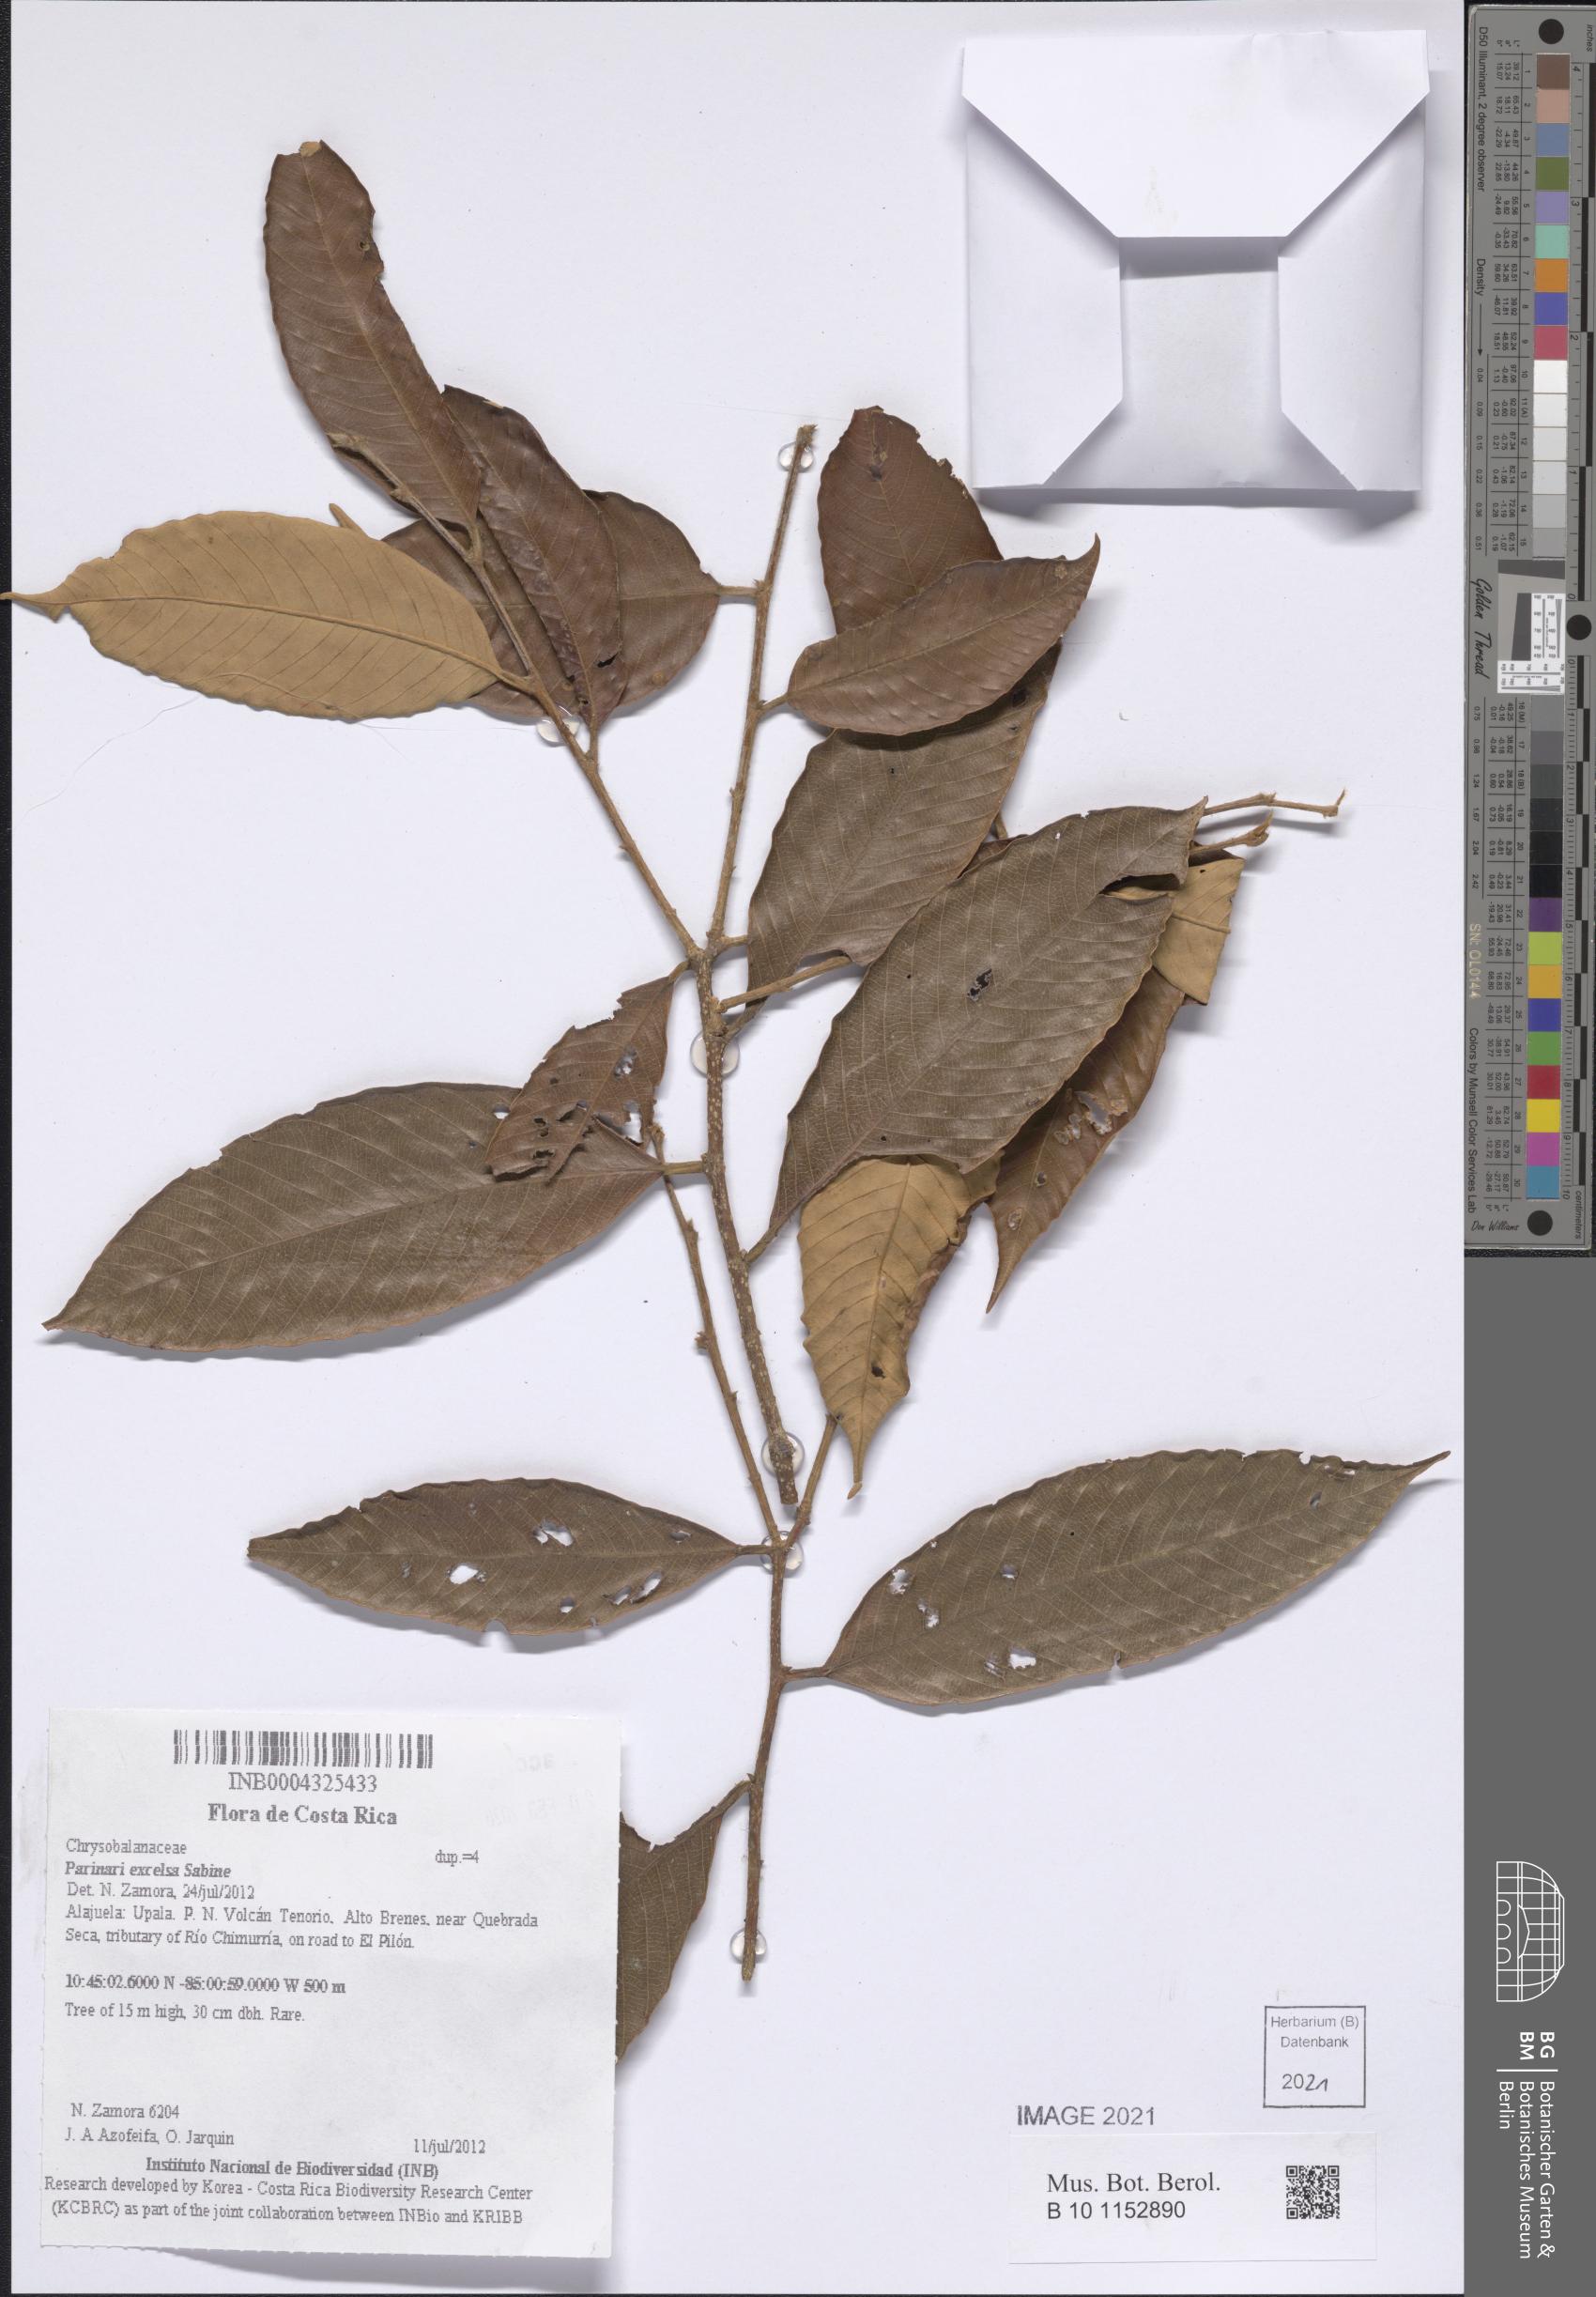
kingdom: Plantae
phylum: Tracheophyta
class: Magnoliopsida
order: Malpighiales
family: Chrysobalanaceae
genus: Parinari
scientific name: Parinari excelsa
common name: Guinea-plum
